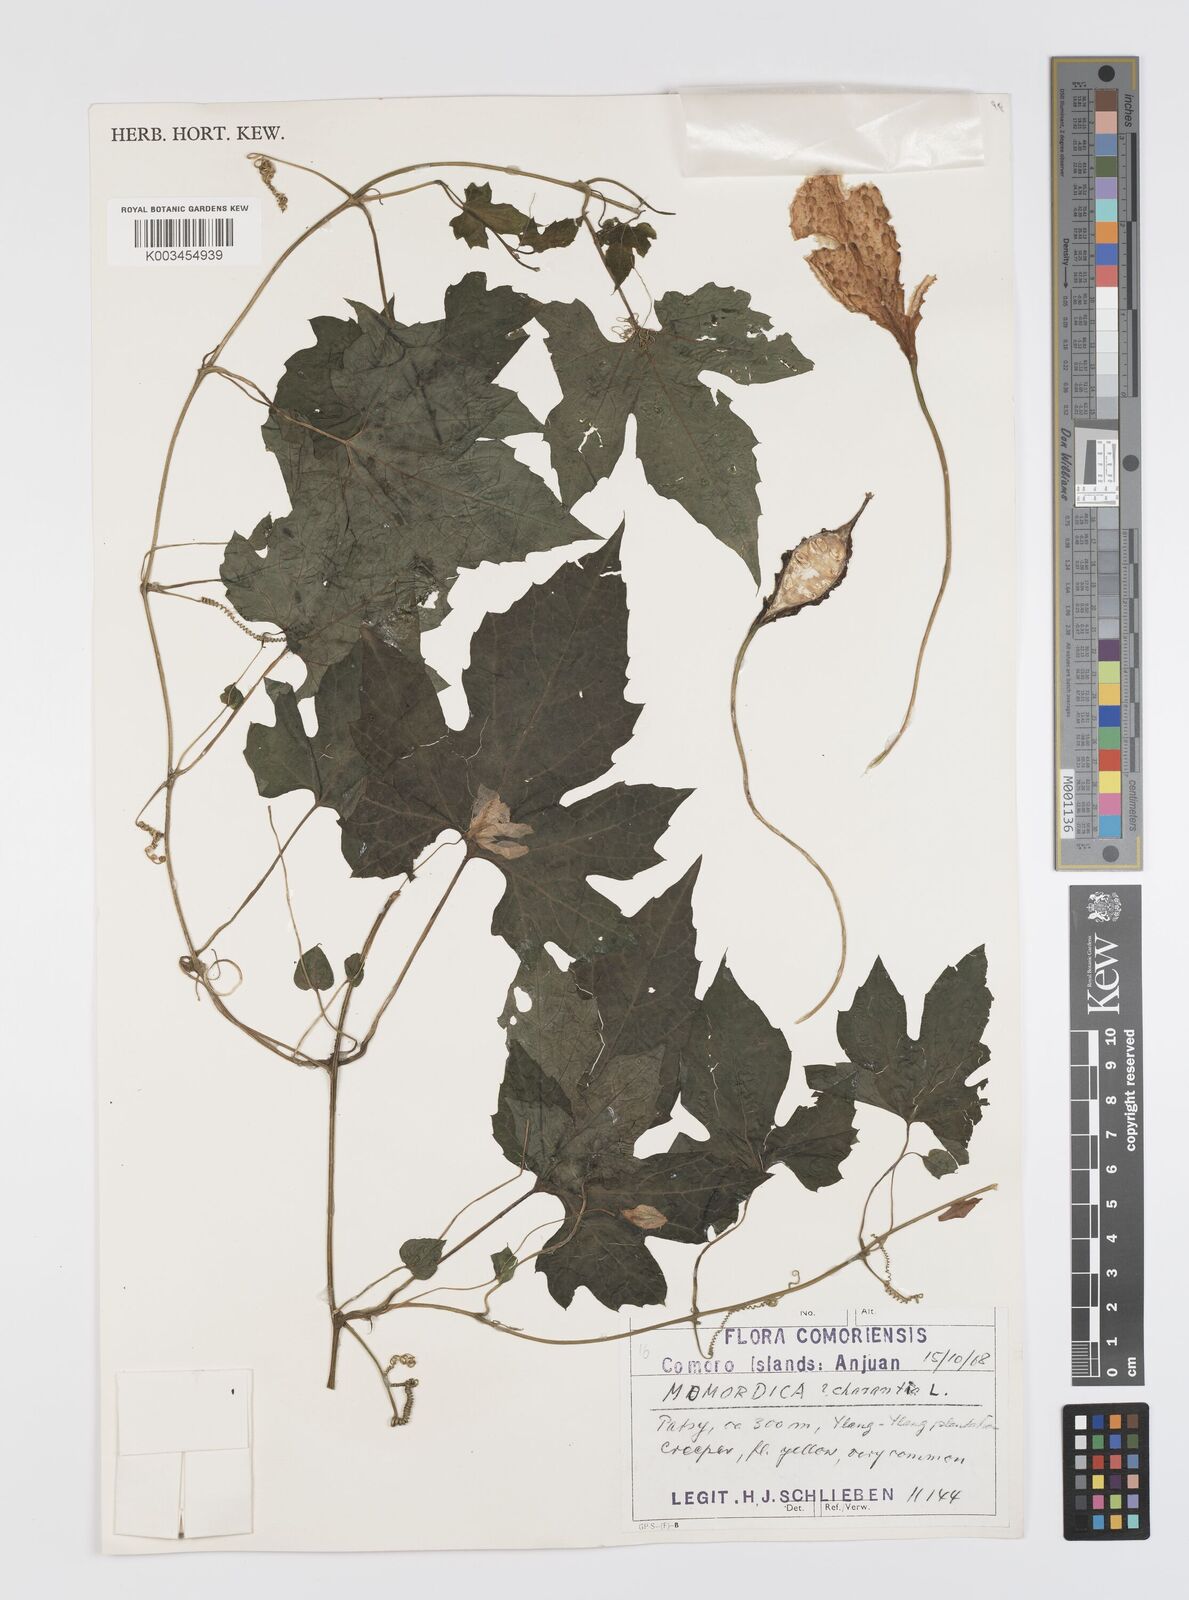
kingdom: Plantae
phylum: Tracheophyta
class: Magnoliopsida
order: Cucurbitales
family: Cucurbitaceae
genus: Momordica
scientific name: Momordica charantia
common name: Balsampear
